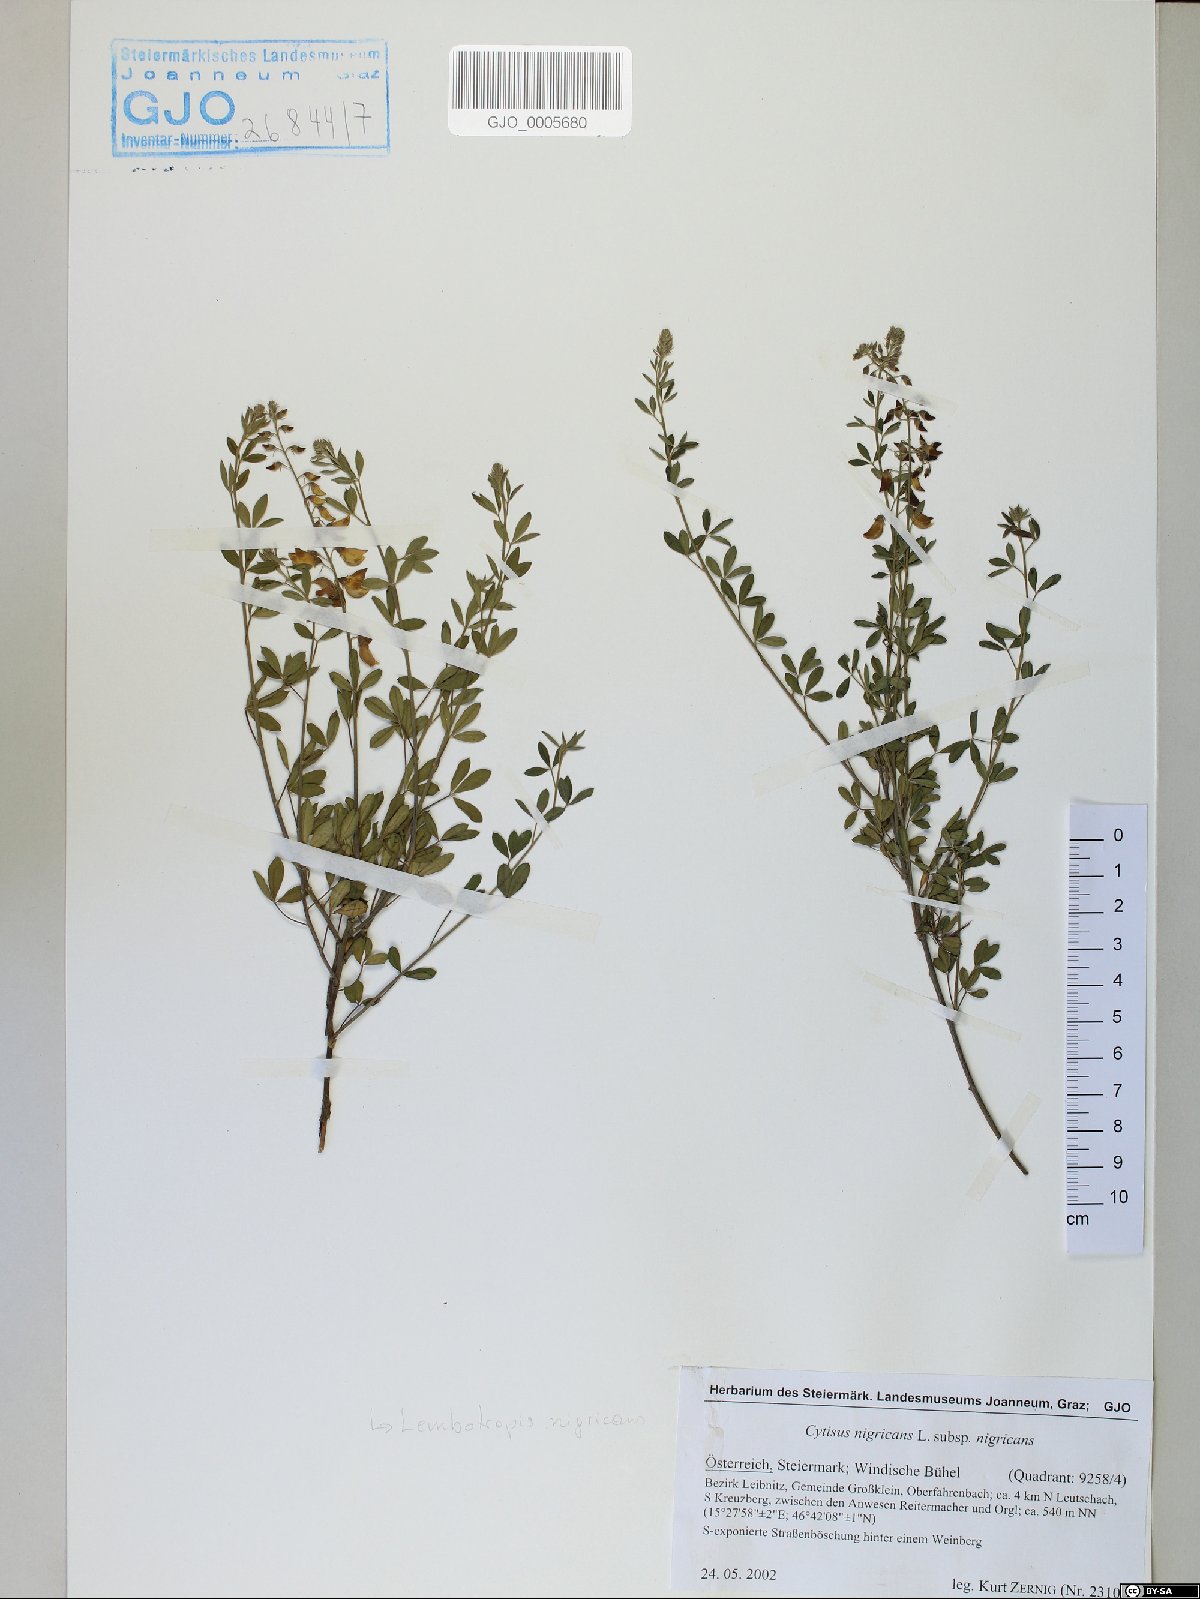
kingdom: Plantae
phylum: Tracheophyta
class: Magnoliopsida
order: Fabales
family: Fabaceae
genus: Cytisus
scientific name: Cytisus nigricans
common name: Black broom
